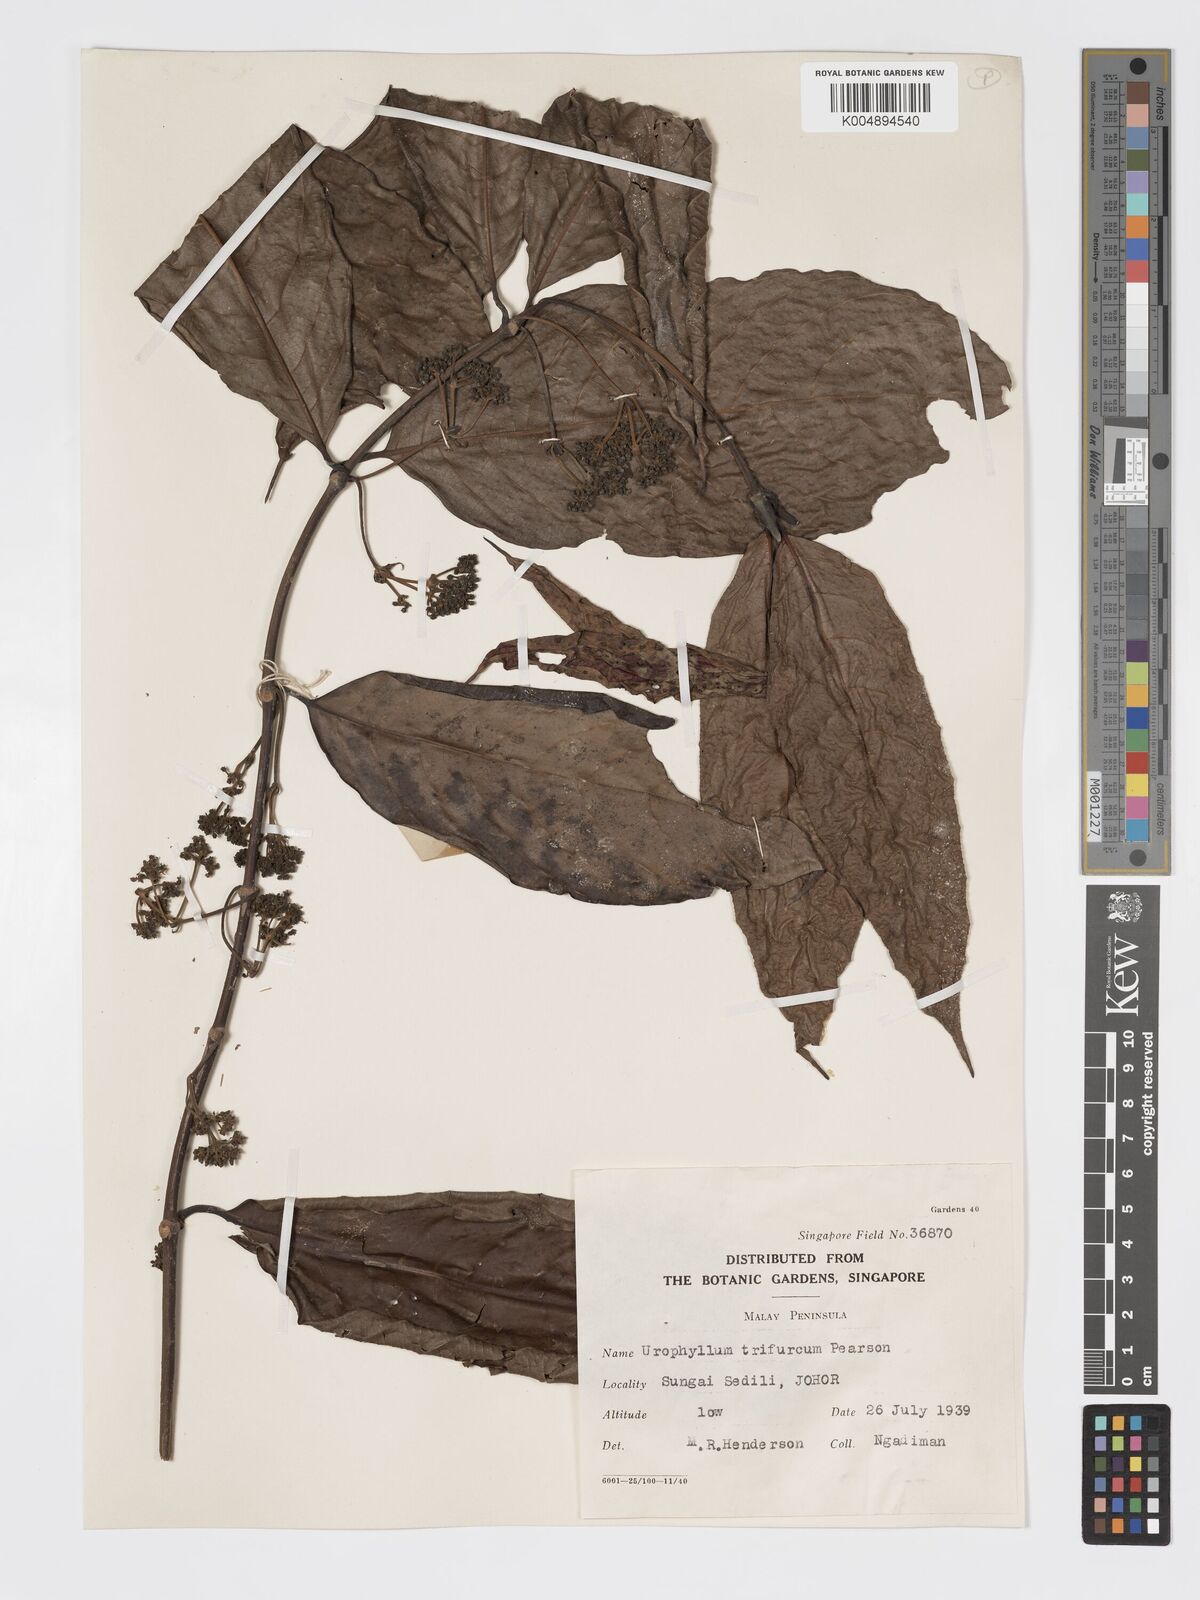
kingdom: Plantae
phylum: Tracheophyta
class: Magnoliopsida
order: Gentianales
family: Rubiaceae
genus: Urophyllum
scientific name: Urophyllum malayense
